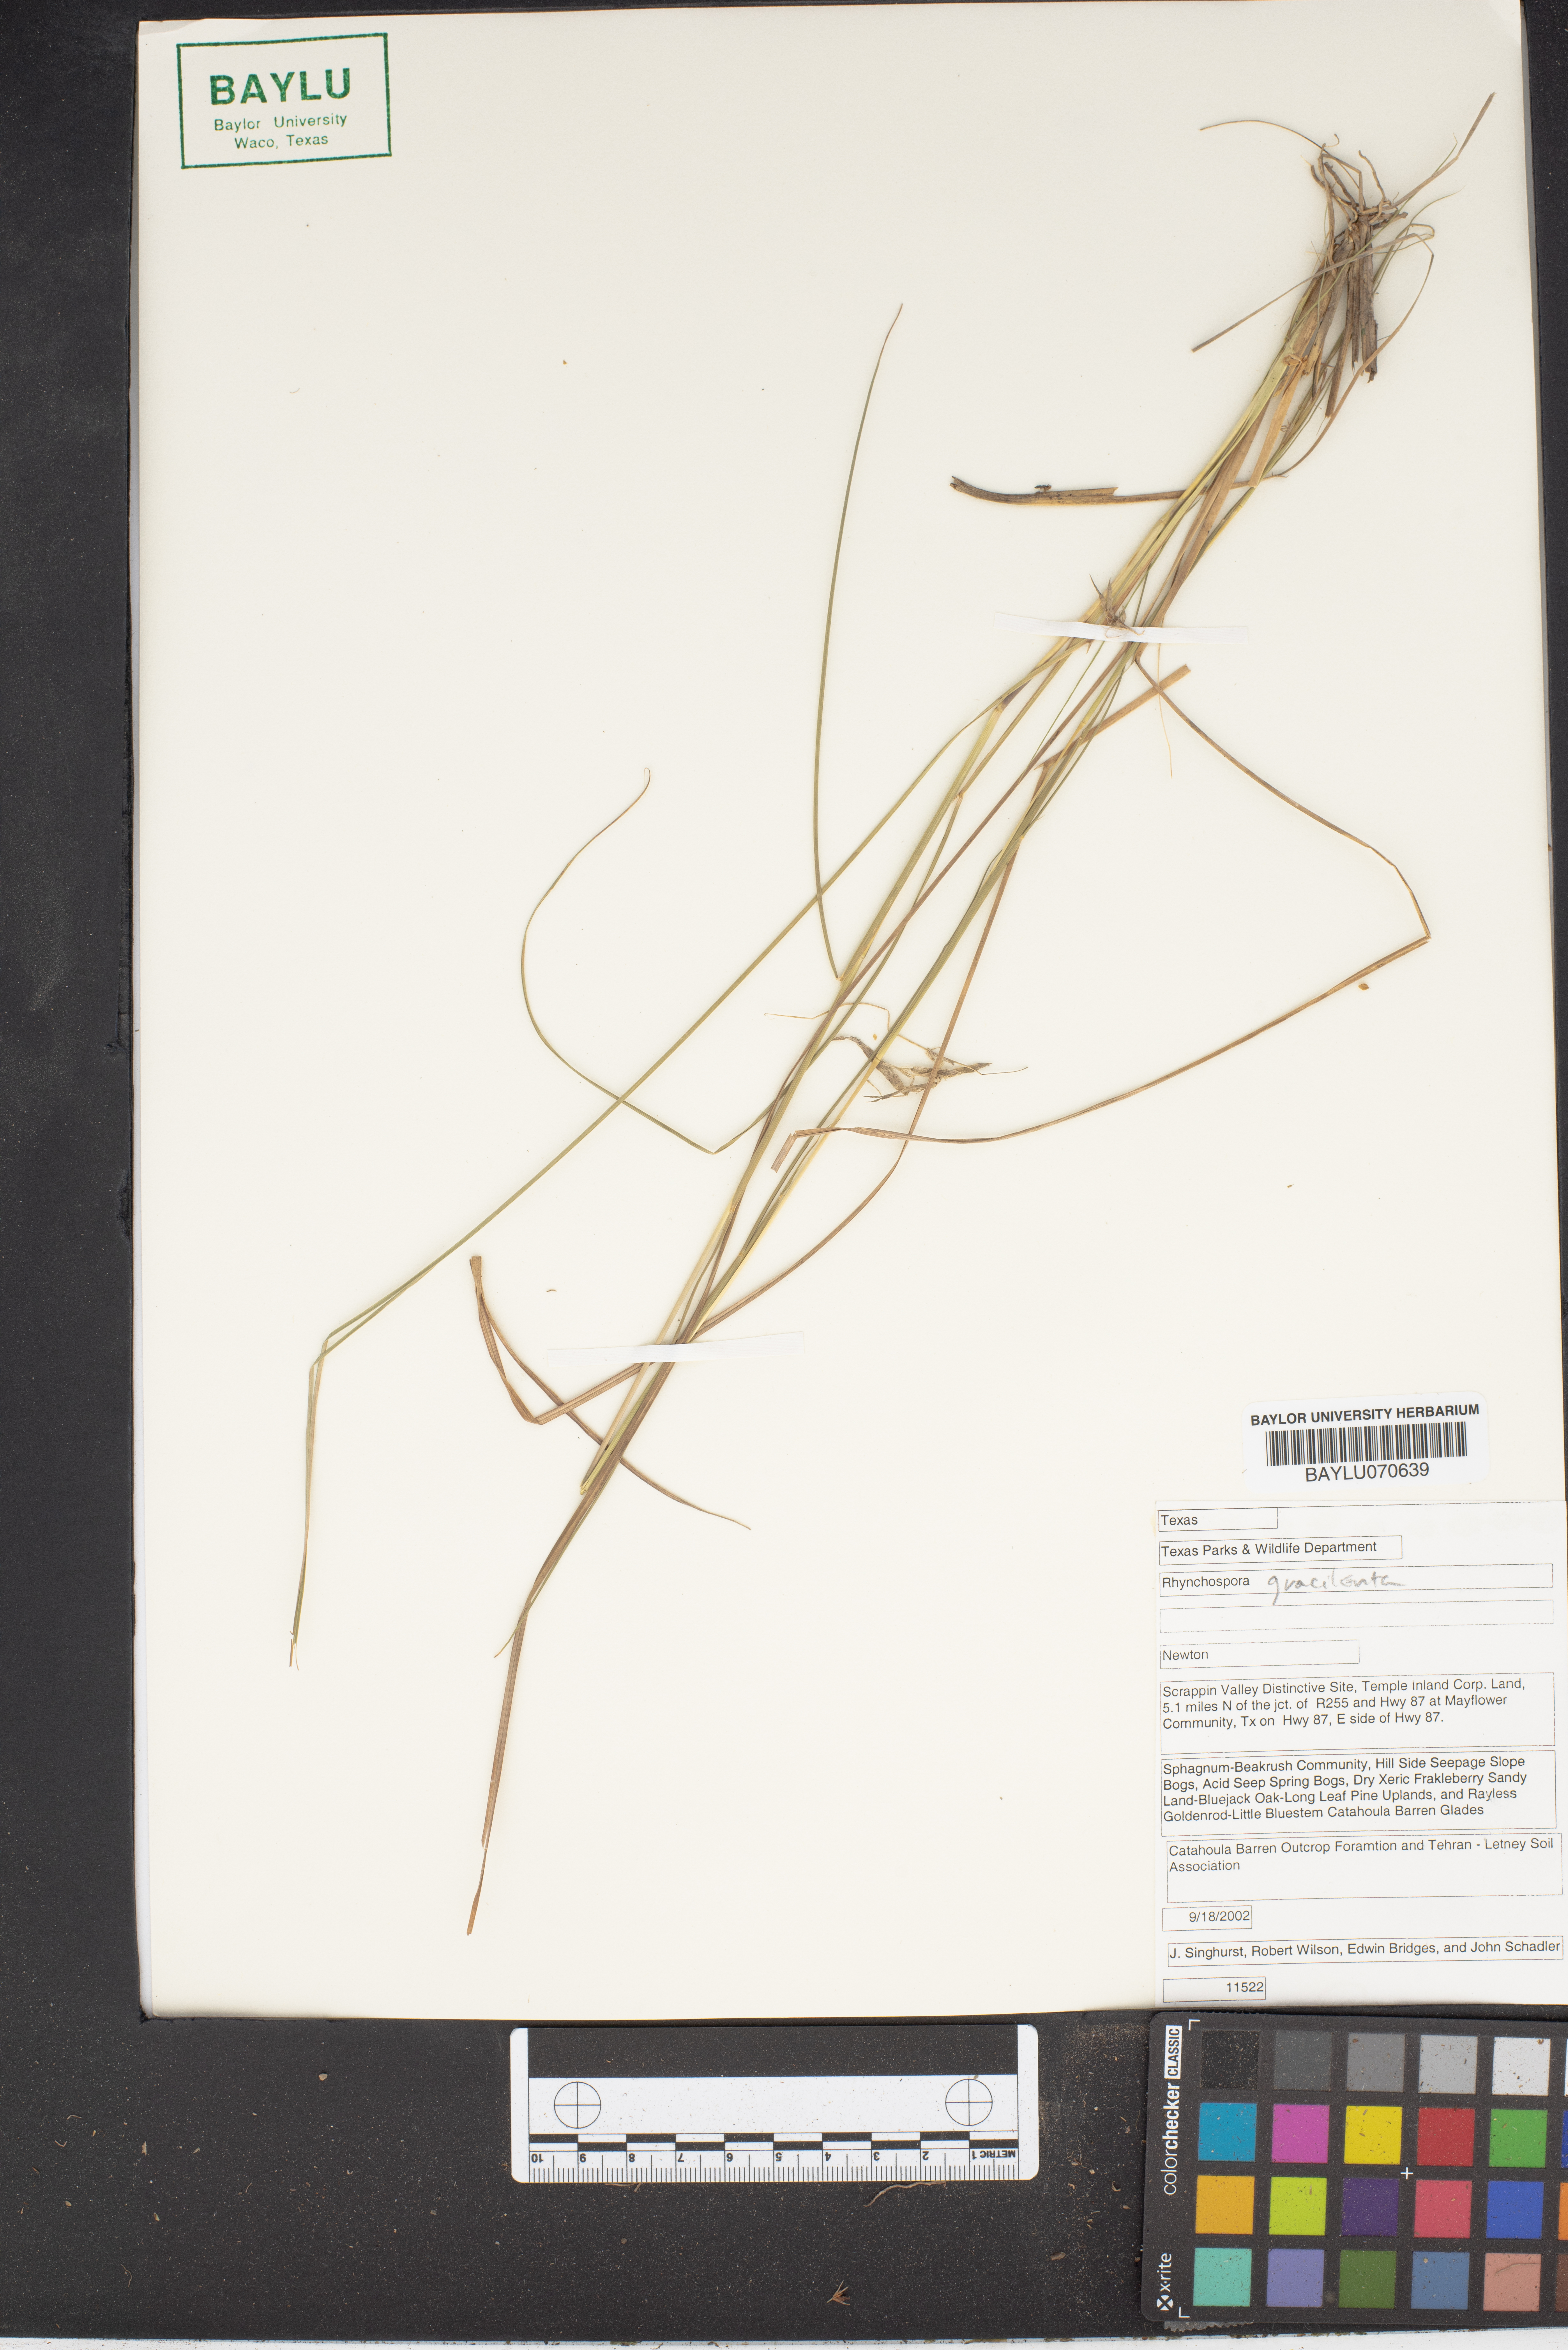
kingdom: Plantae
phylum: Tracheophyta
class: Liliopsida
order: Poales
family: Cyperaceae
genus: Rhynchospora
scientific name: Rhynchospora gracilenta
